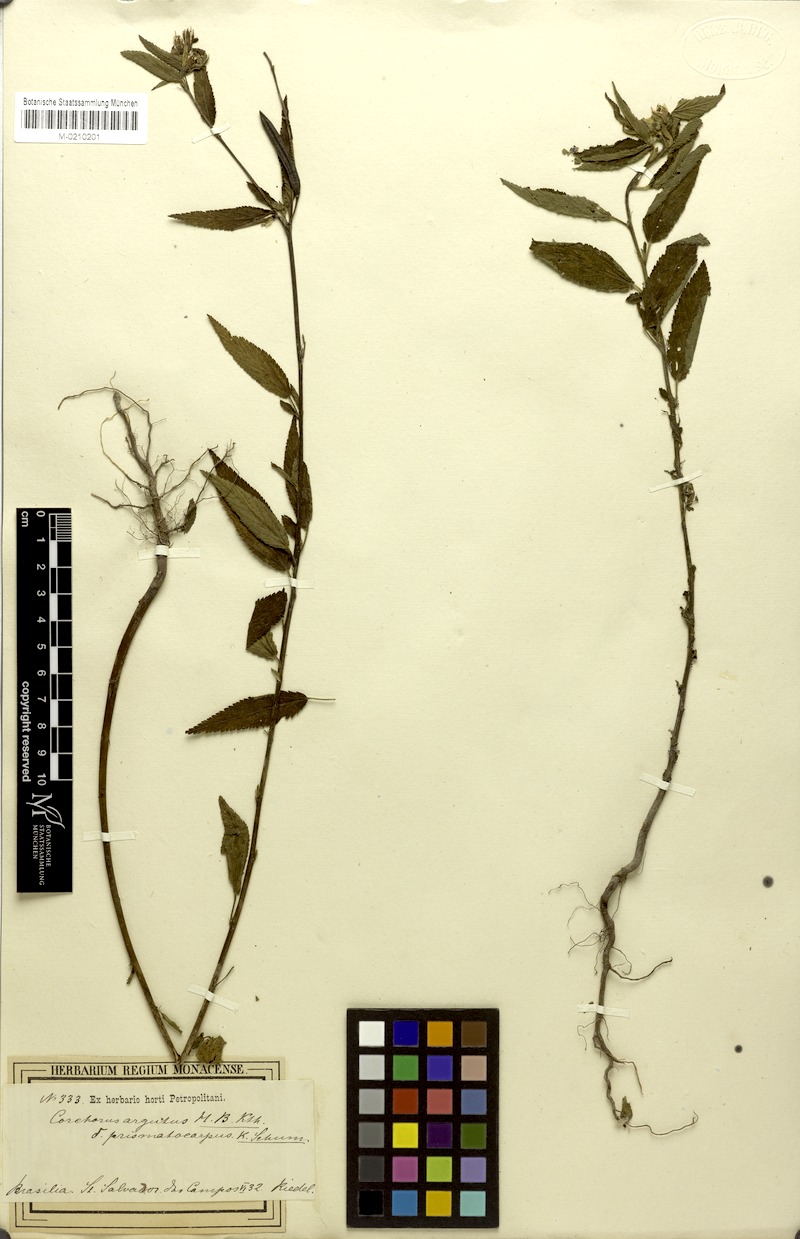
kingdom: Plantae
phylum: Tracheophyta
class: Magnoliopsida
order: Malvales
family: Malvaceae
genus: Corchorus
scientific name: Corchorus orinocensis
